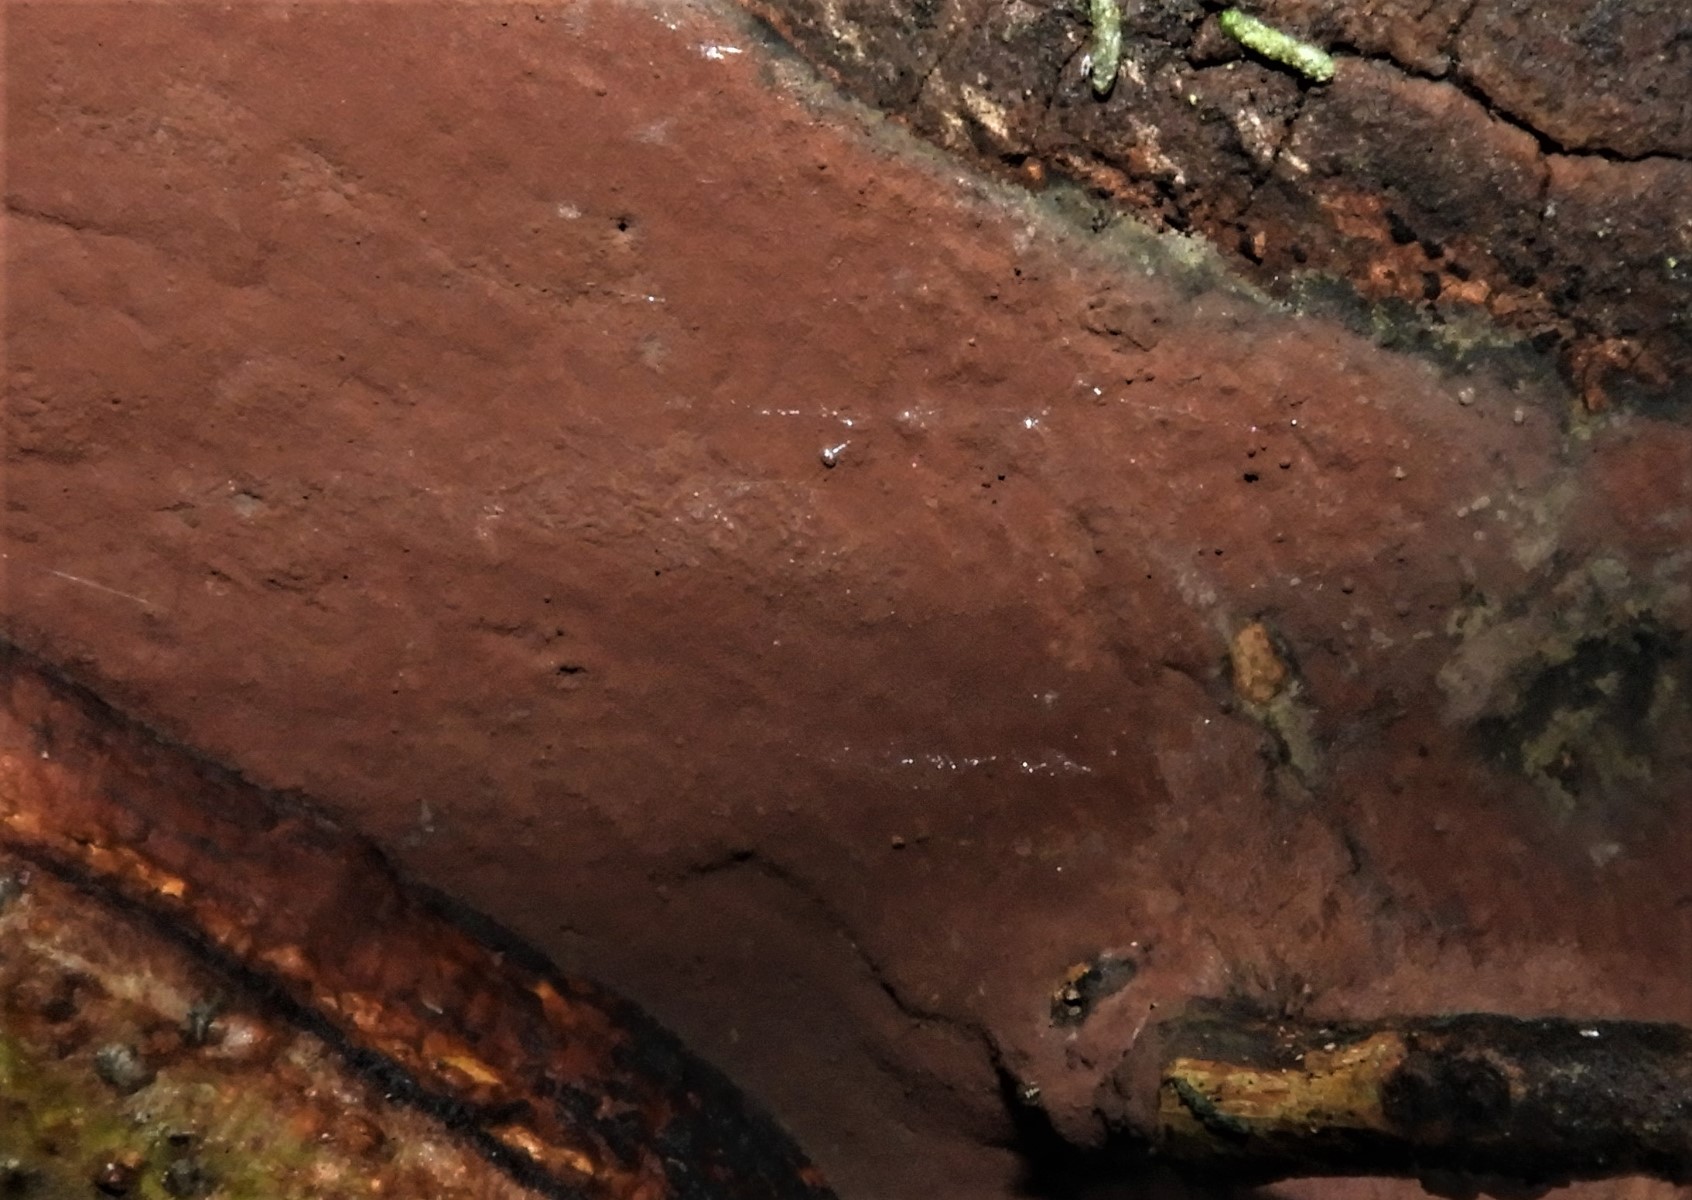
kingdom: Fungi
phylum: Ascomycota
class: Sordariomycetes
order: Xylariales
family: Hypoxylaceae
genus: Hypoxylon
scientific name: Hypoxylon
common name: kulbær
